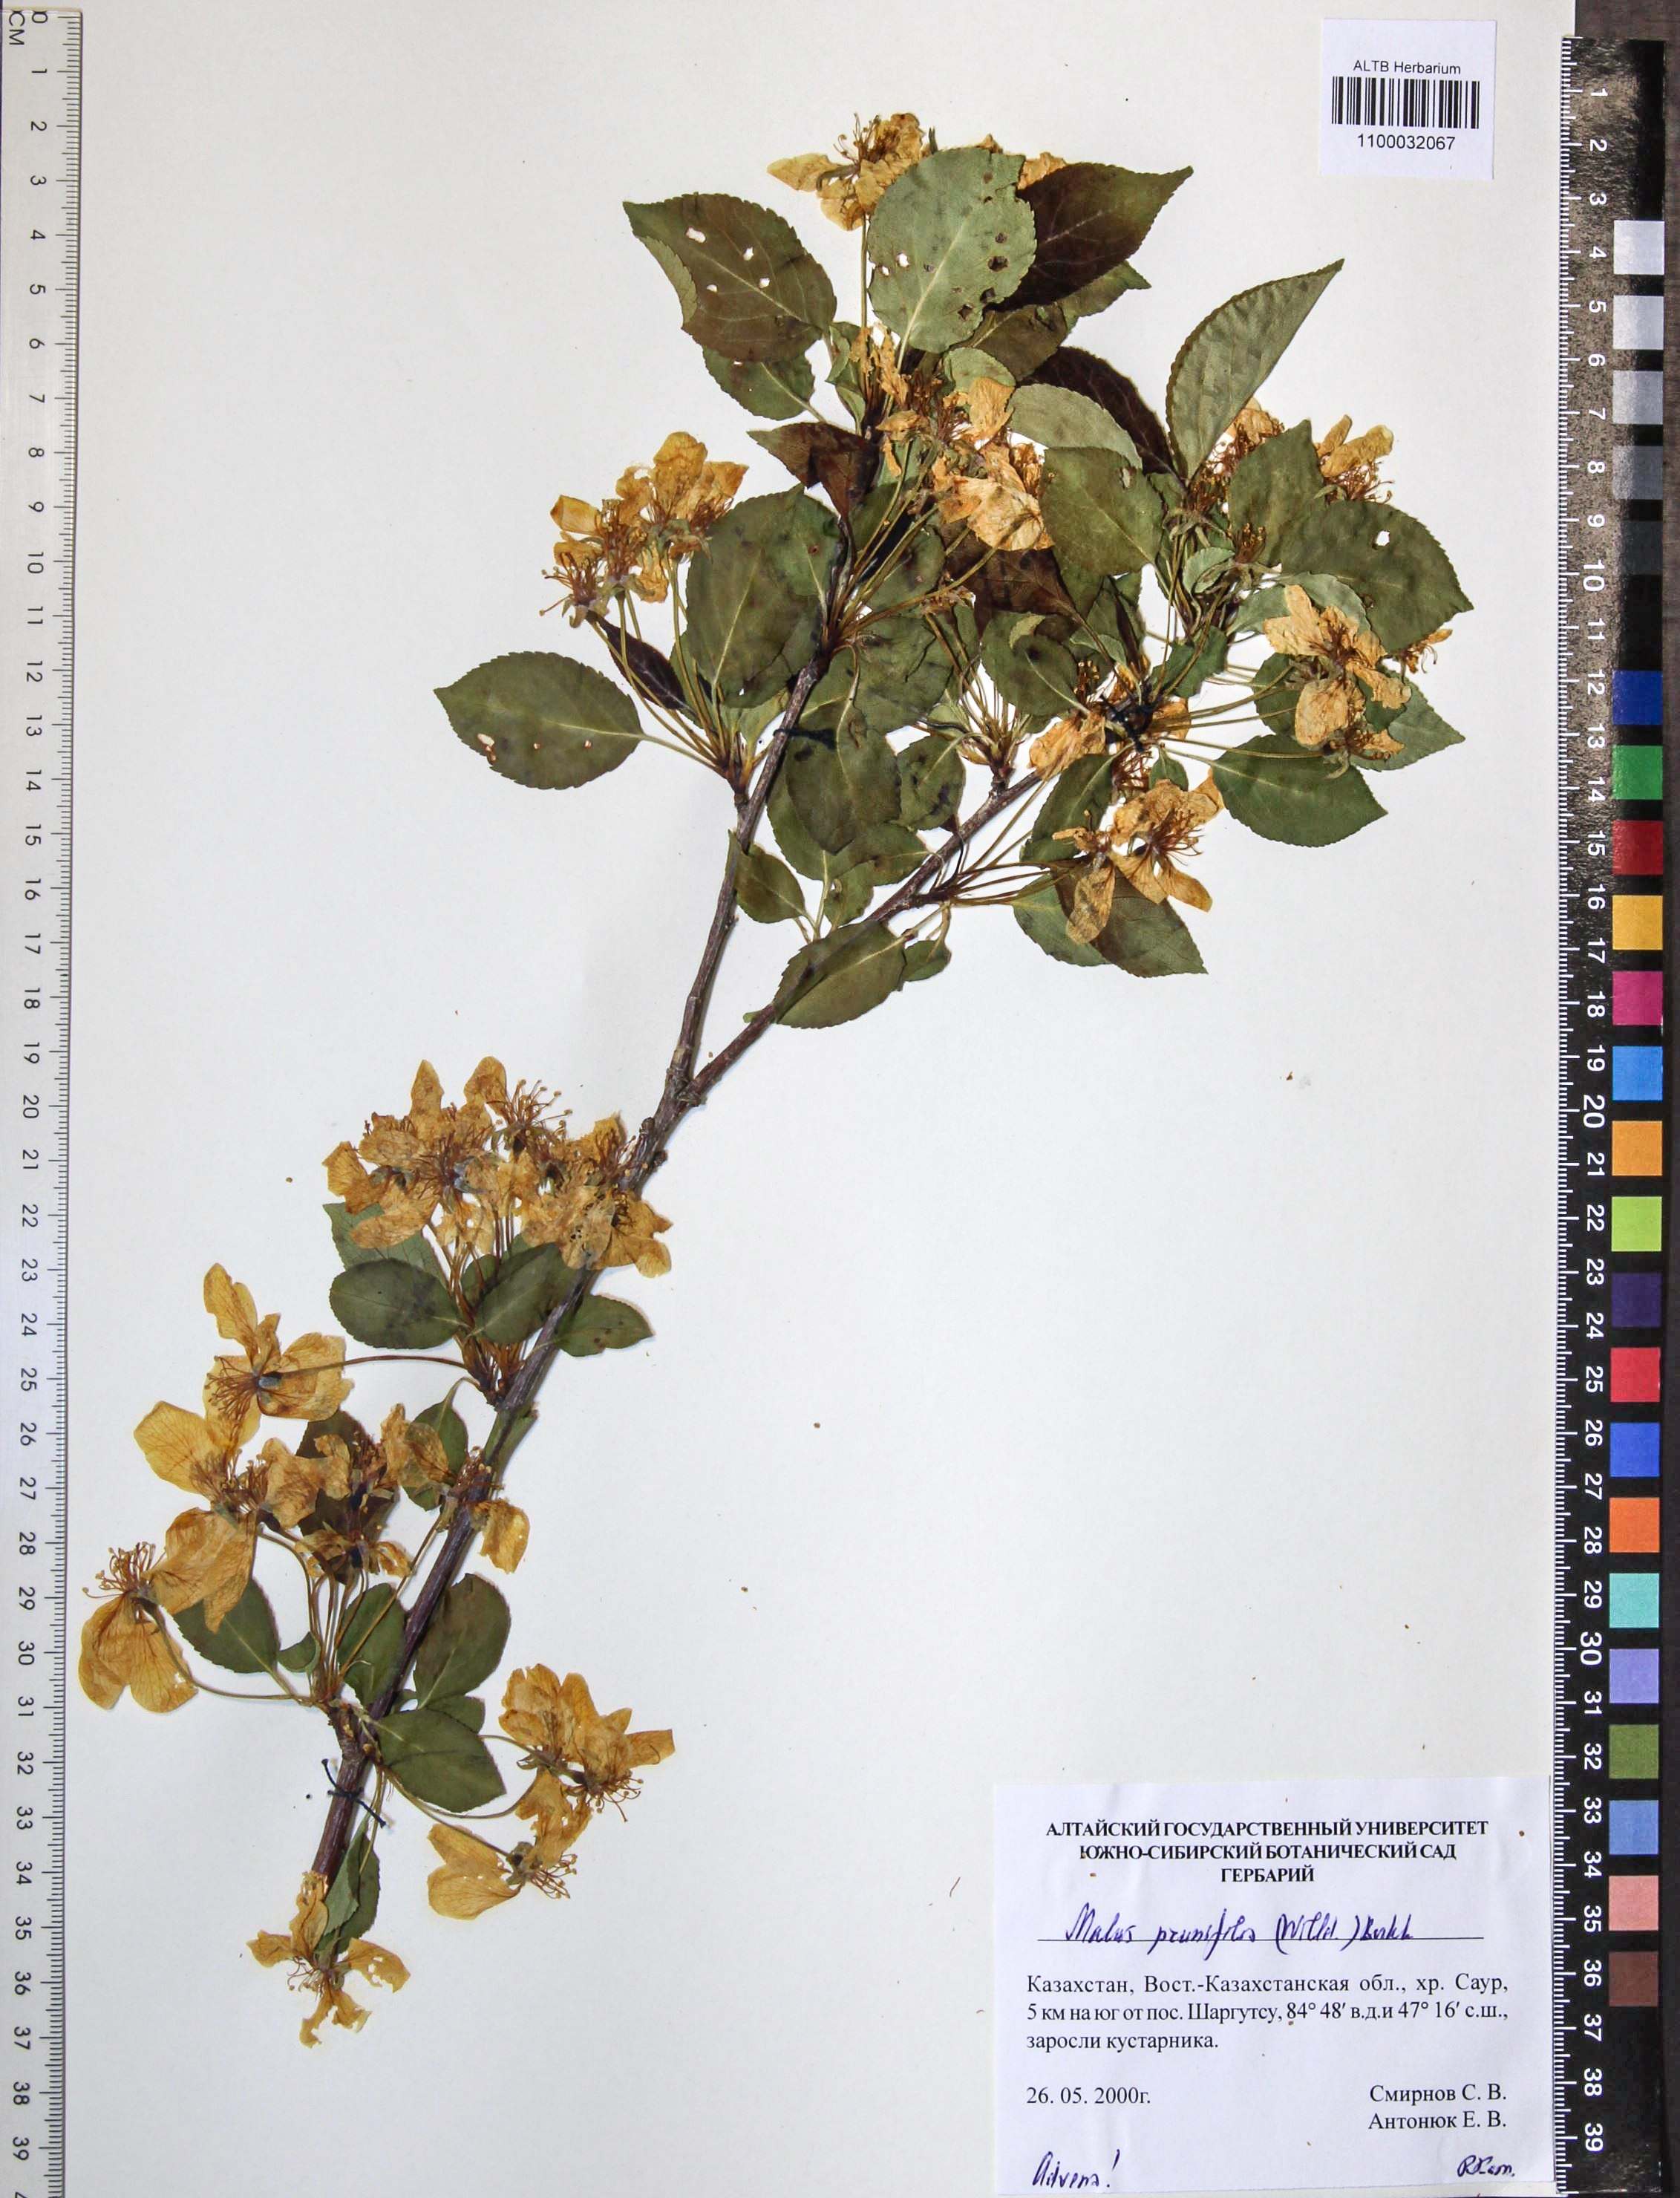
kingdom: Plantae
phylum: Tracheophyta
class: Magnoliopsida
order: Rosales
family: Rosaceae
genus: Malus
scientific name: Malus prunifolia
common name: Chinese apple
